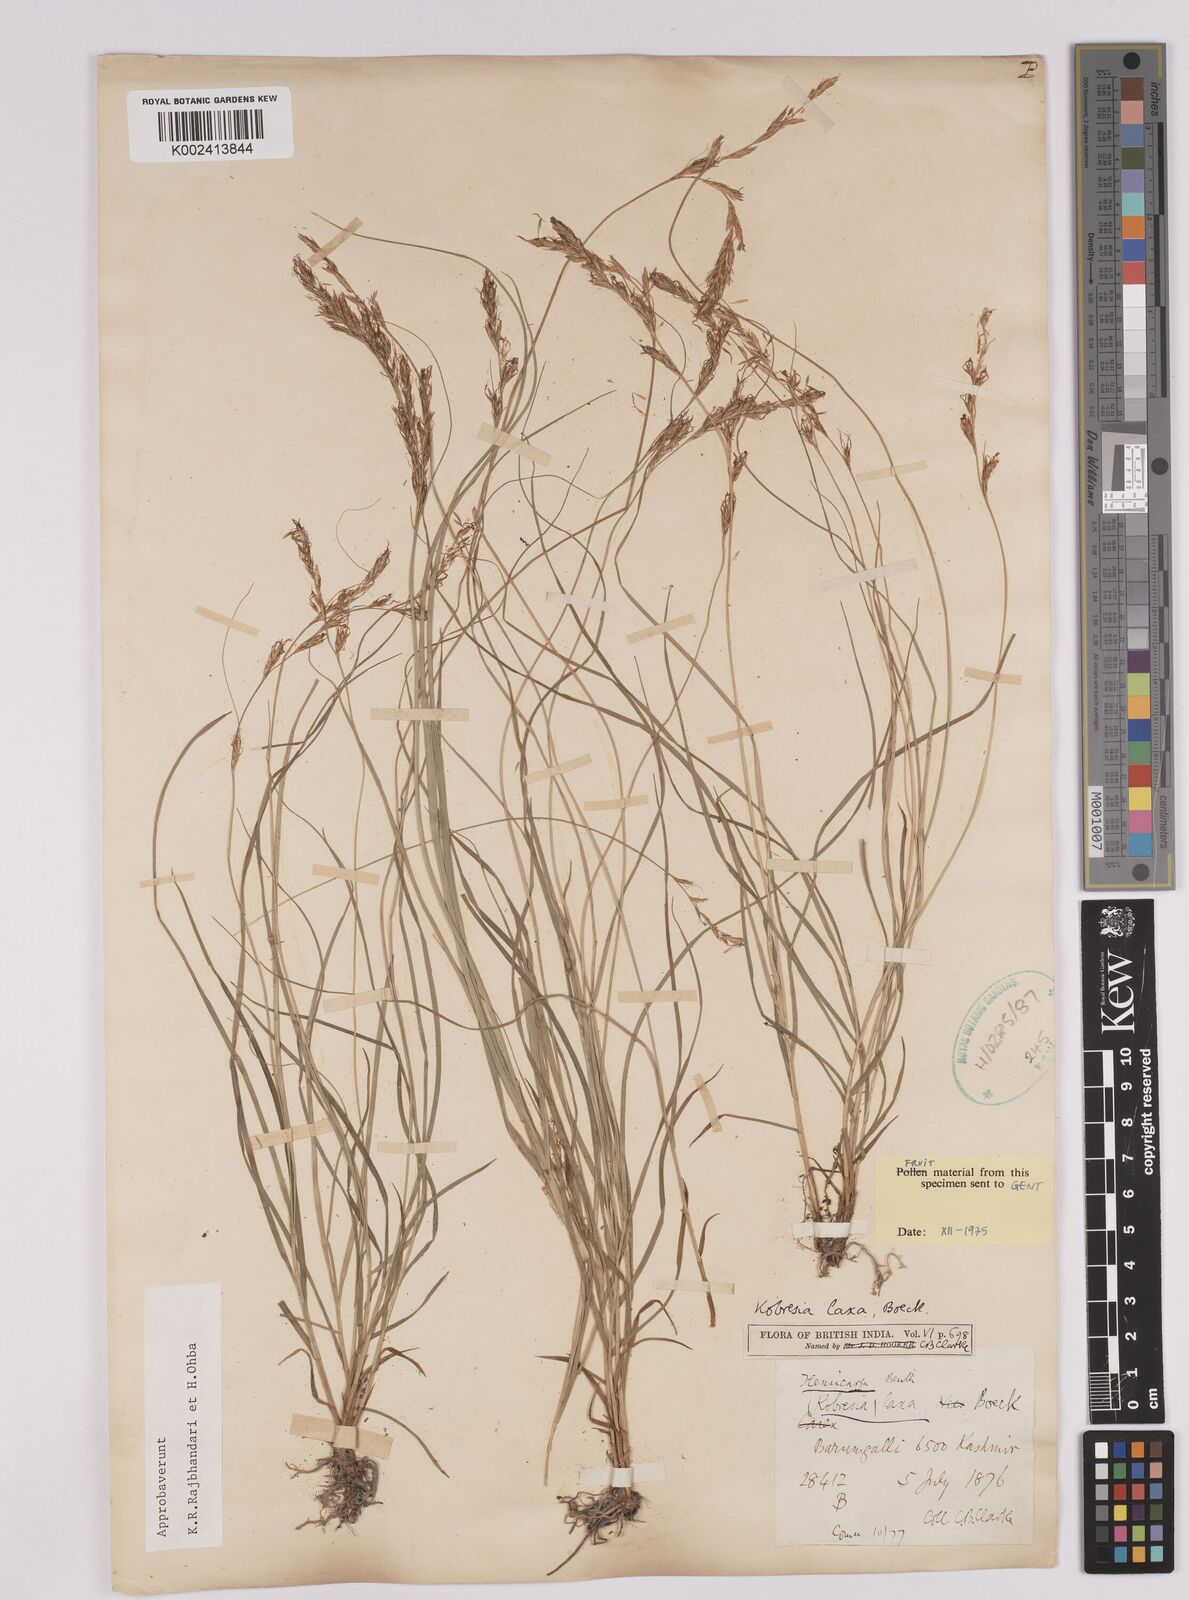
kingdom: Plantae
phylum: Tracheophyta
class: Liliopsida
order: Poales
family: Cyperaceae
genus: Carex
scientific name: Carex
